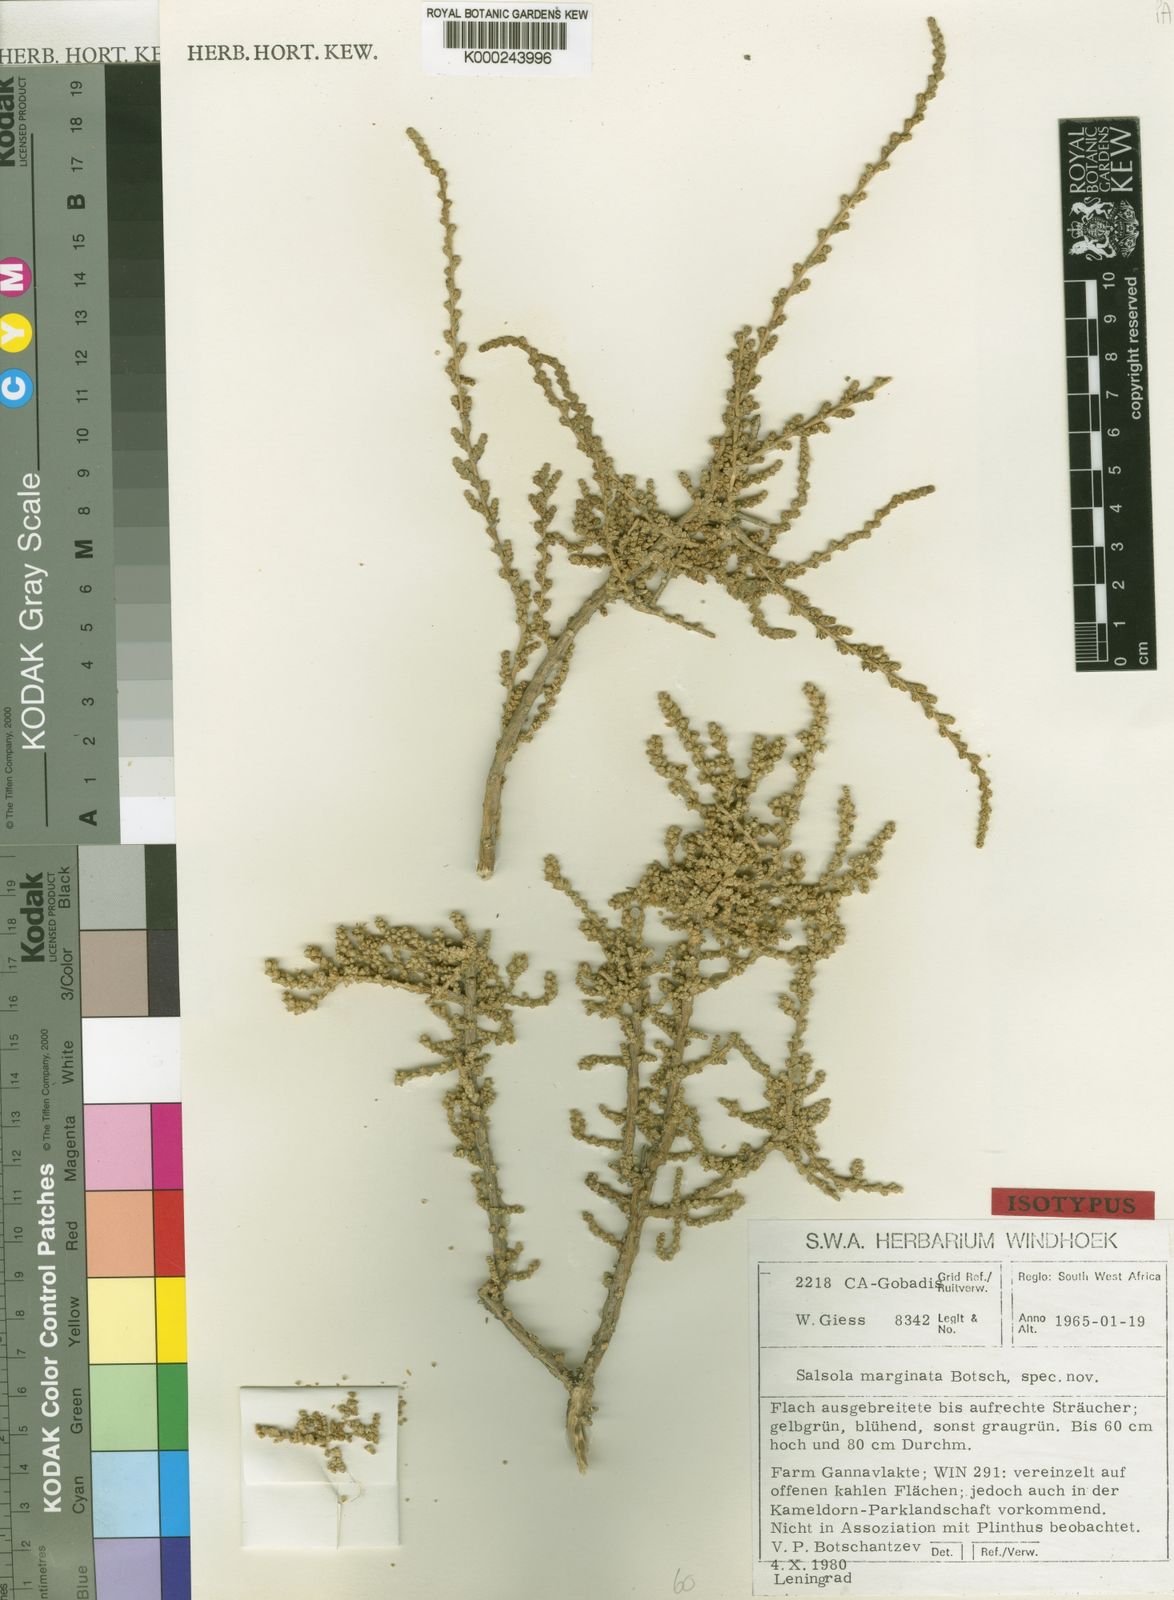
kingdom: Plantae
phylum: Tracheophyta
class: Magnoliopsida
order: Caryophyllales
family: Amaranthaceae
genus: Caroxylon
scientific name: Caroxylon marginatum
